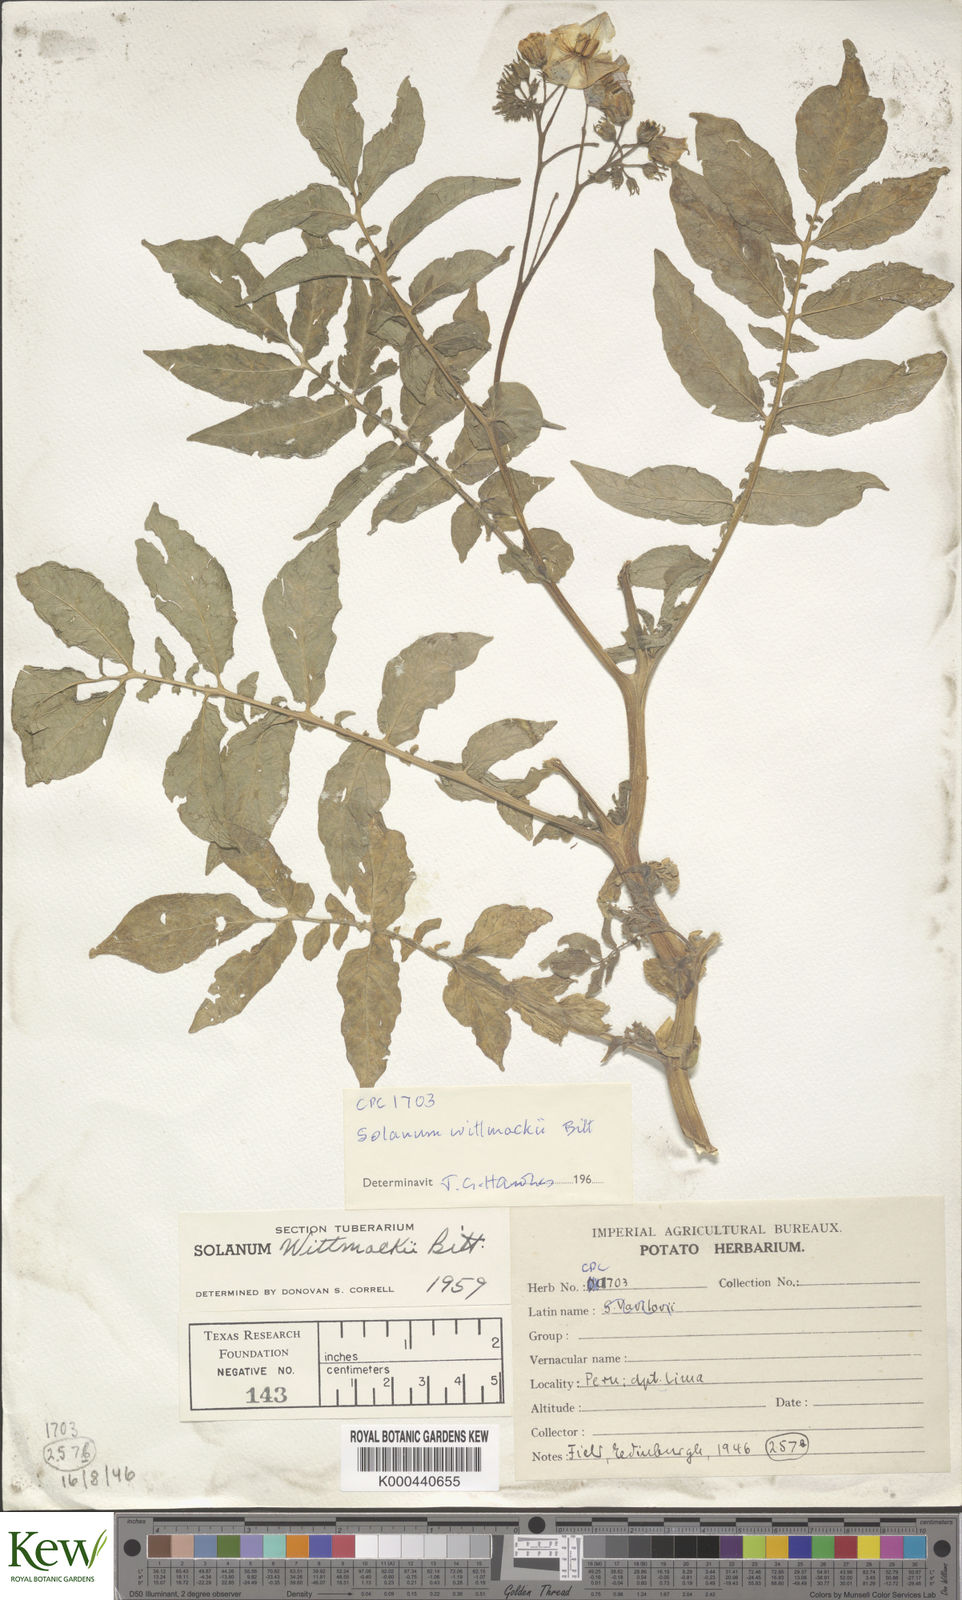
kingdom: Plantae
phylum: Tracheophyta
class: Magnoliopsida
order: Solanales
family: Solanaceae
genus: Solanum
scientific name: Solanum wittmackii
